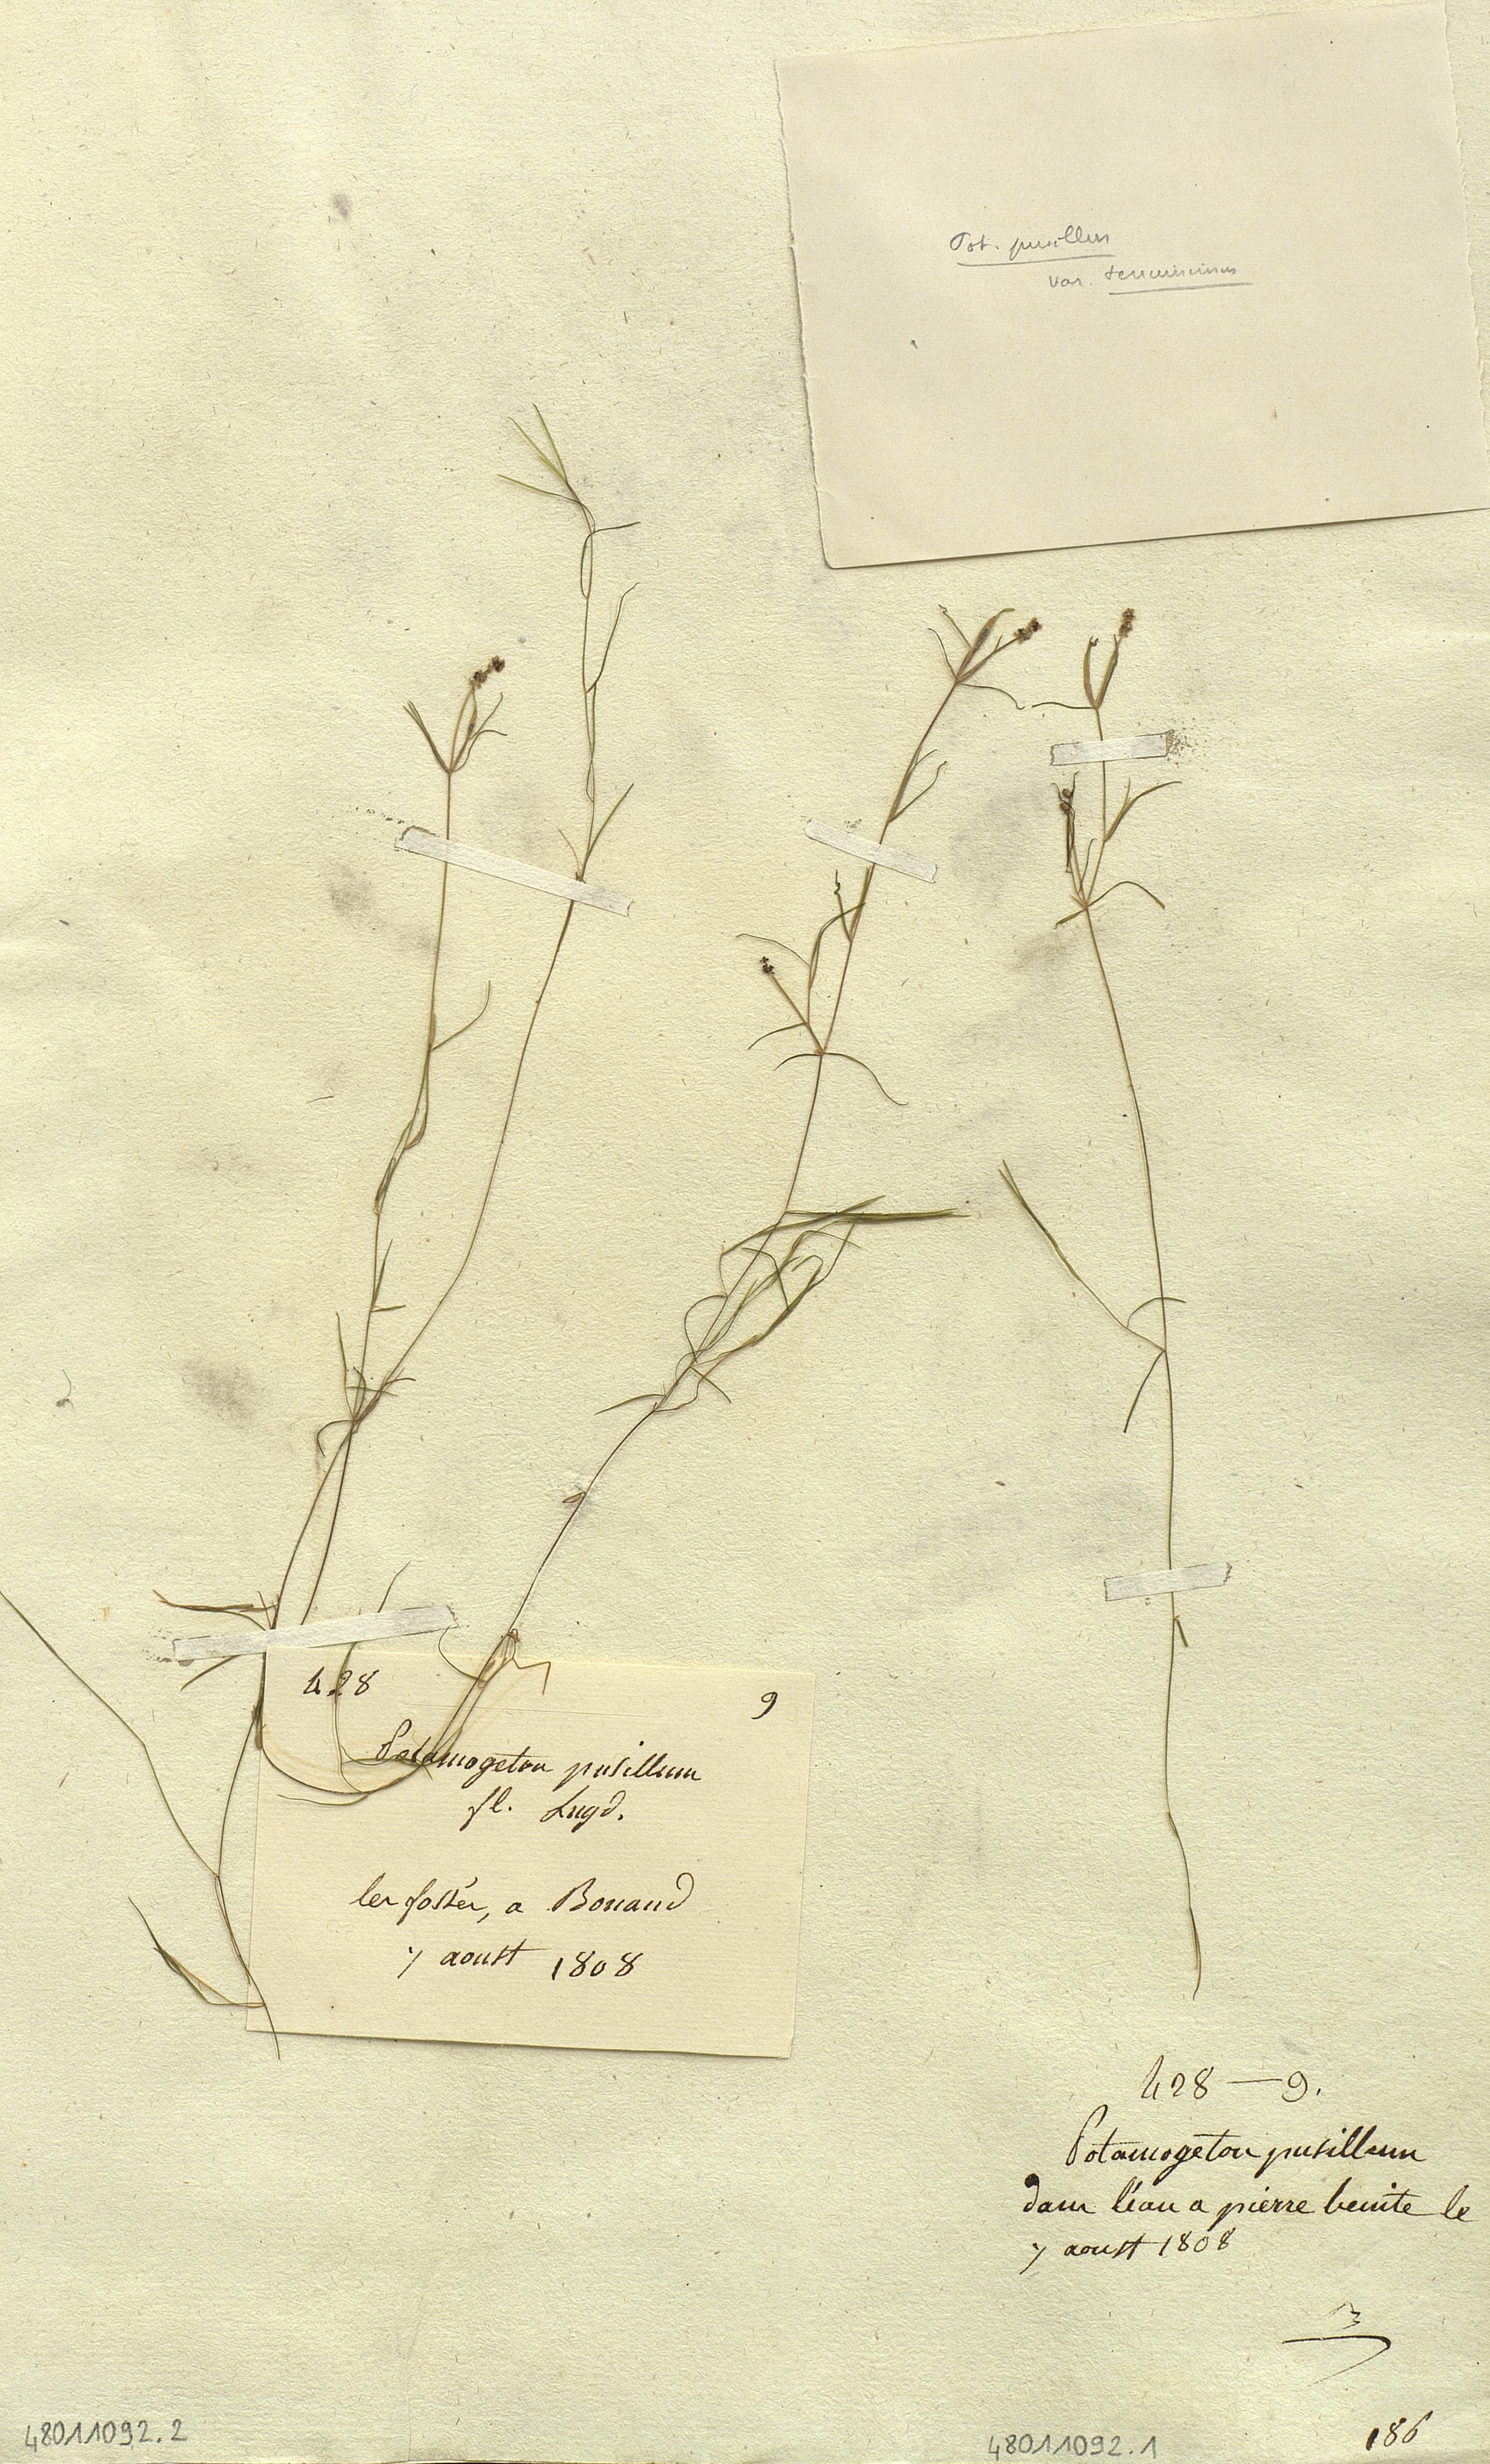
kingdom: Plantae
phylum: Tracheophyta
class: Liliopsida
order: Alismatales
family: Potamogetonaceae
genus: Potamogeton
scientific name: Potamogeton pusillus
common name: Lesser pondweed
